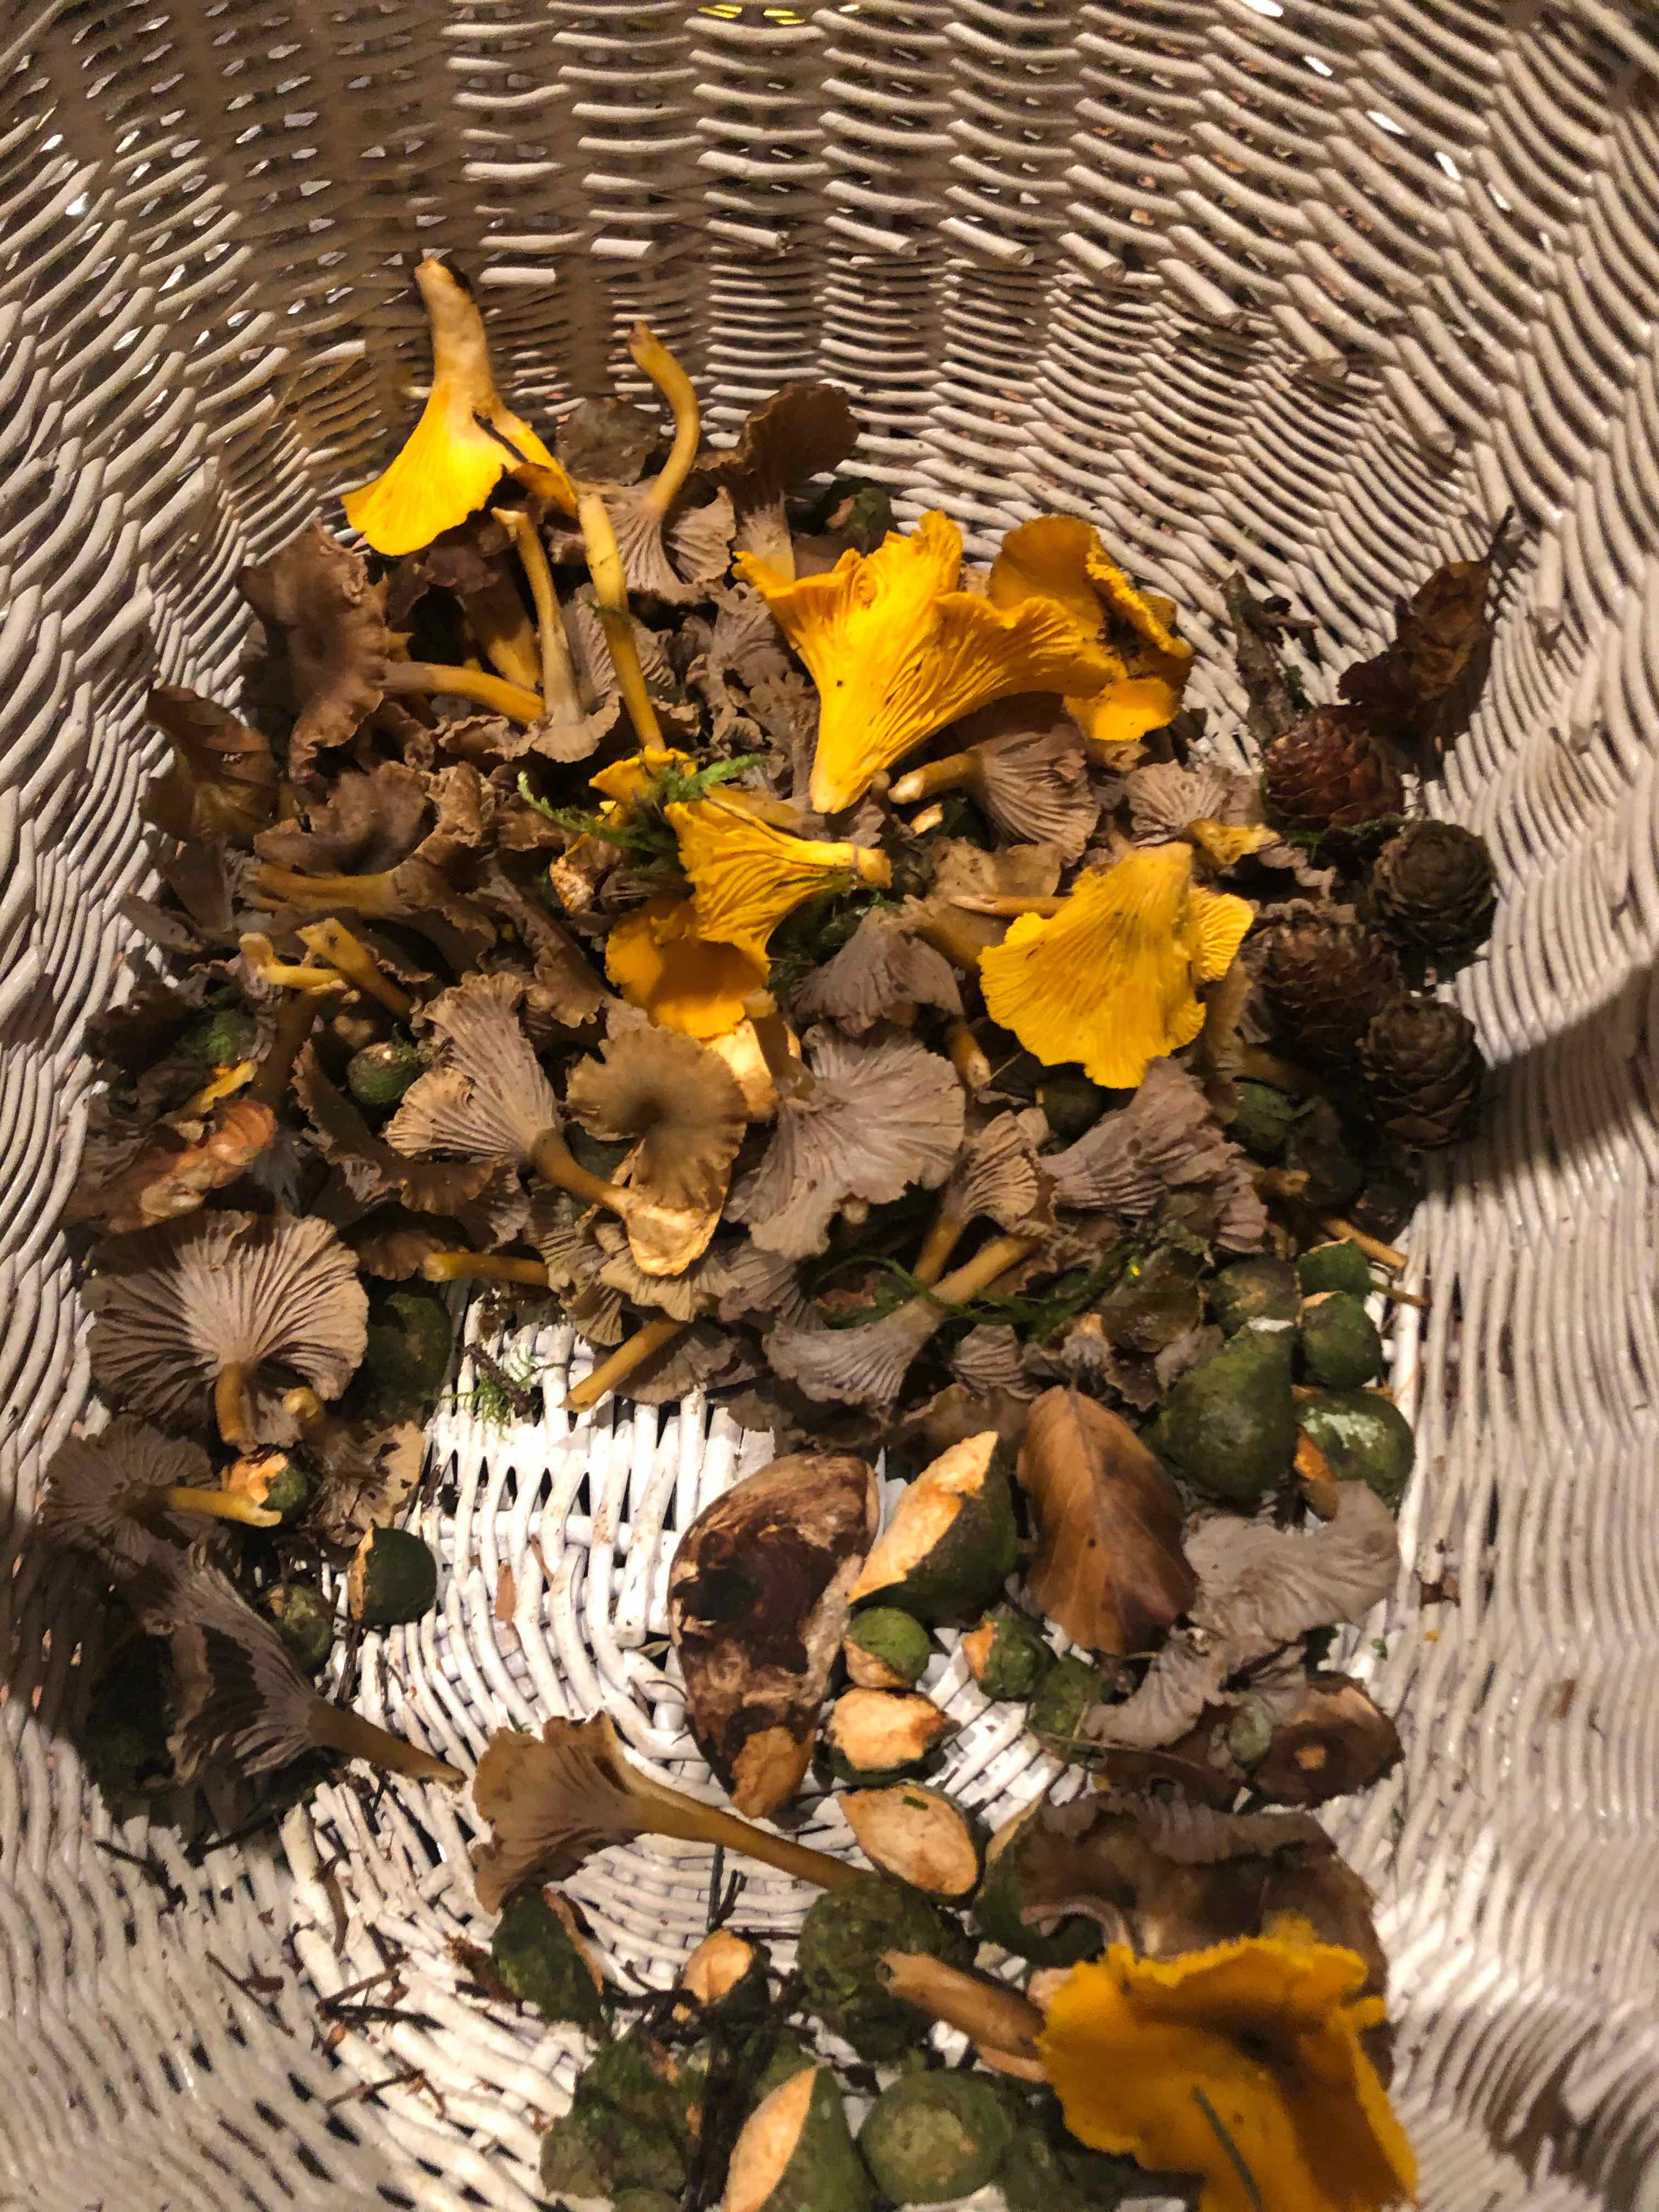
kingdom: Fungi
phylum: Basidiomycota
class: Agaricomycetes
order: Cantharellales
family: Hydnaceae
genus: Craterellus
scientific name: Craterellus tubaeformis
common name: tragt-kantarel
